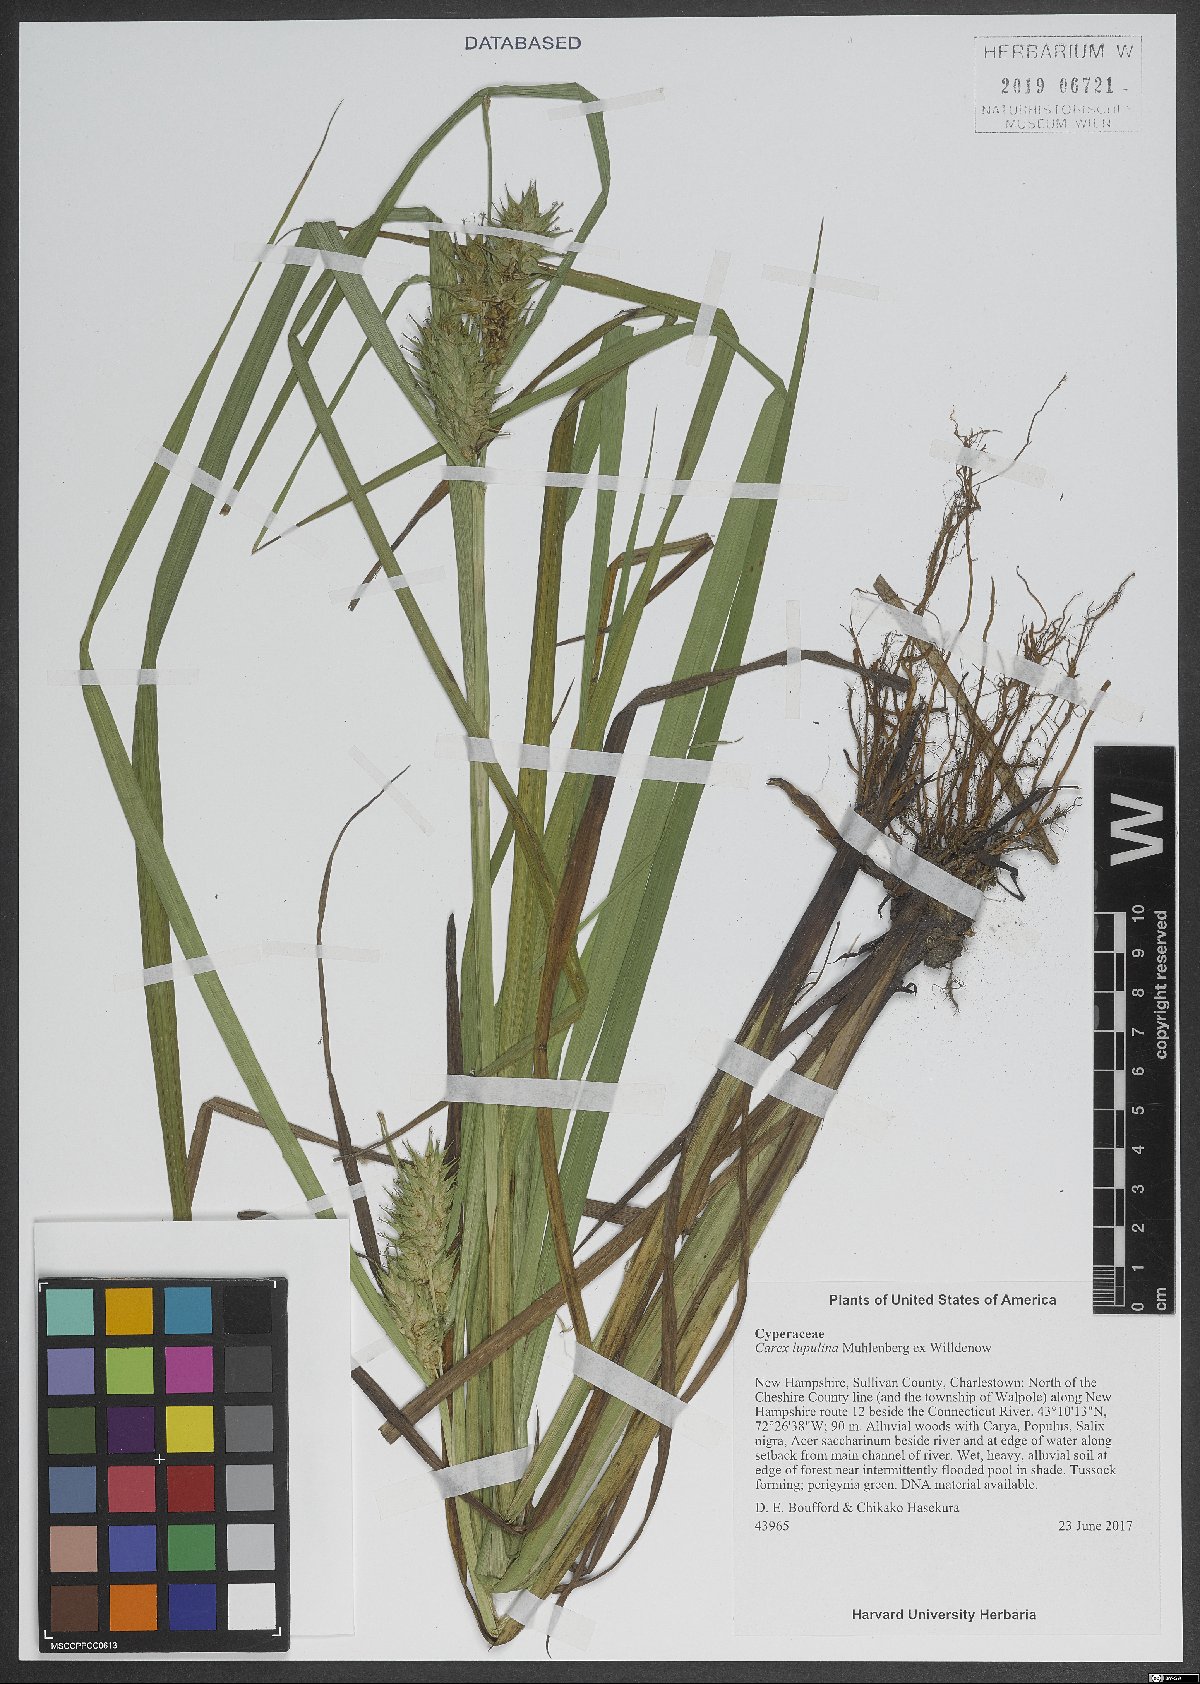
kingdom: Plantae
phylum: Tracheophyta
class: Liliopsida
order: Poales
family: Cyperaceae
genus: Carex
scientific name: Carex lupulina
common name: Hop sedge
